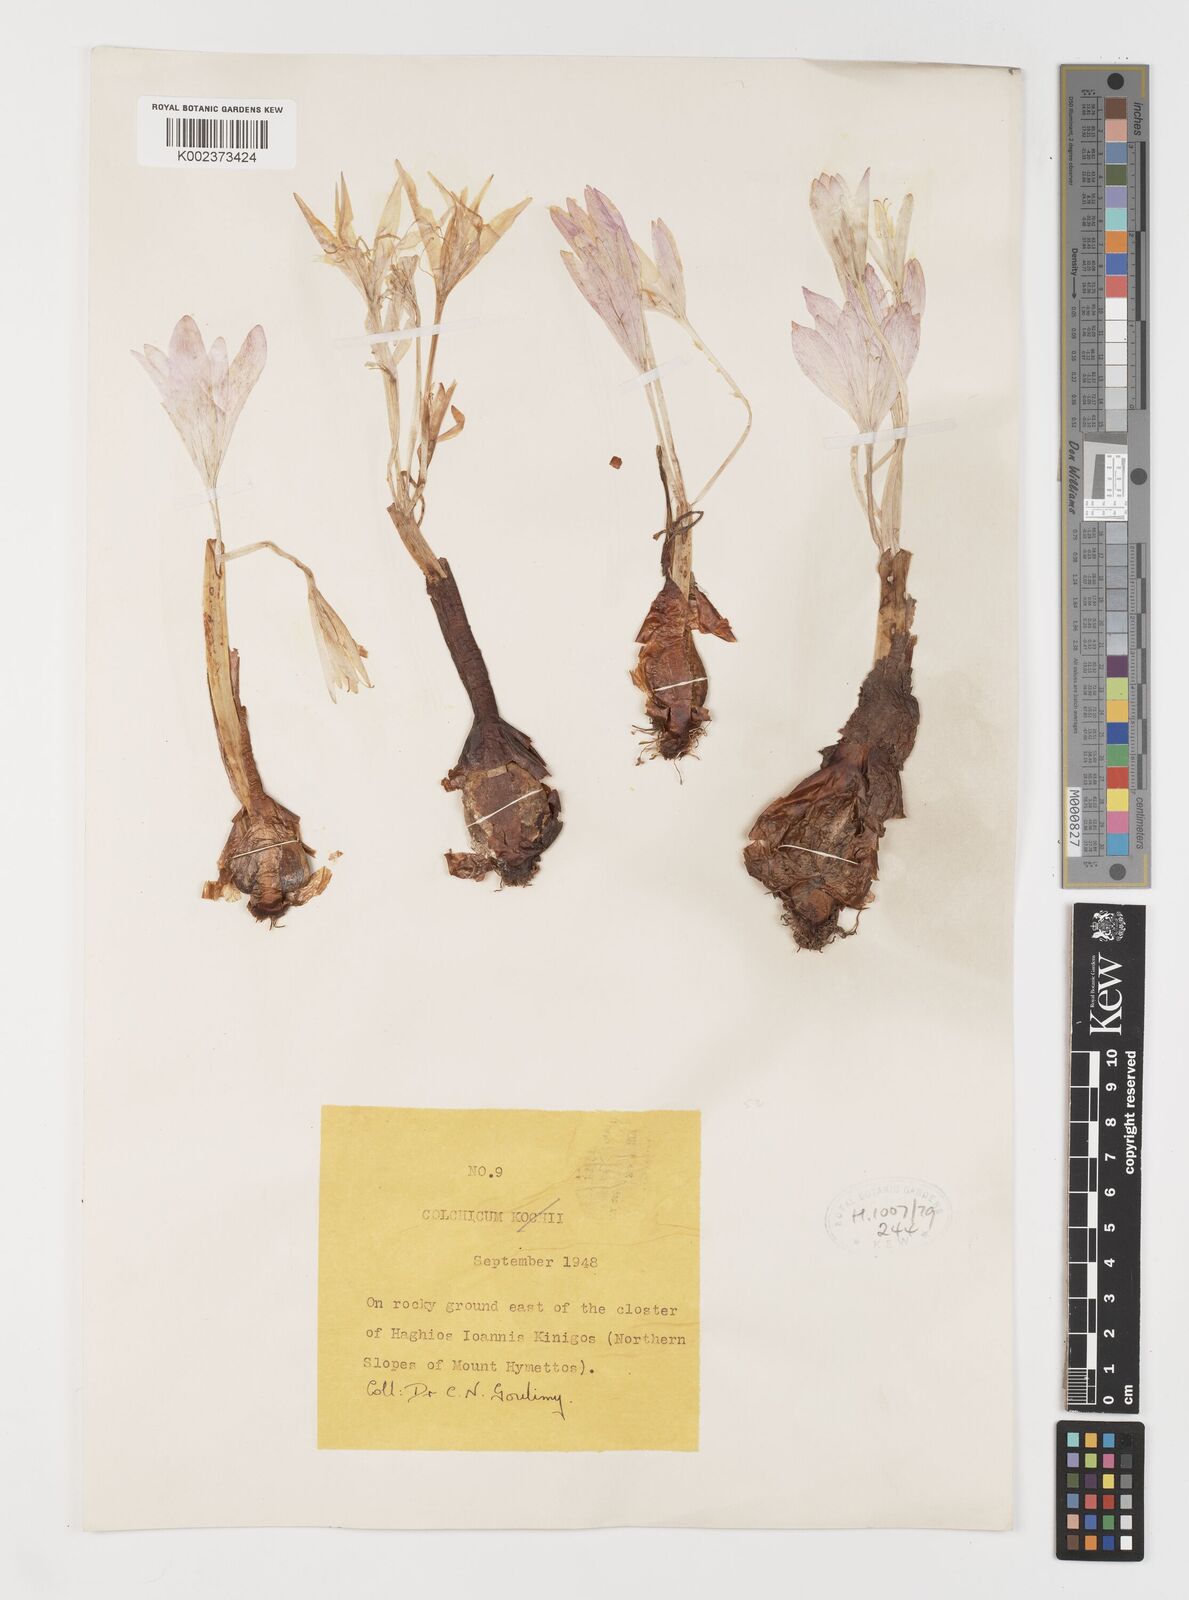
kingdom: Plantae
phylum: Tracheophyta
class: Liliopsida
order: Liliales
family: Colchicaceae
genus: Colchicum
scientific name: Colchicum
